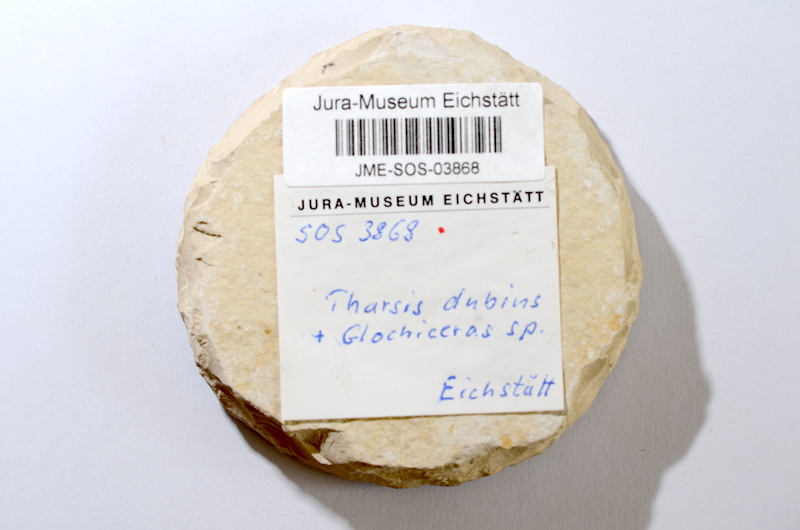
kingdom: Animalia
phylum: Chordata
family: Ascalaboidae
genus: Tharsis
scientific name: Tharsis dubius
